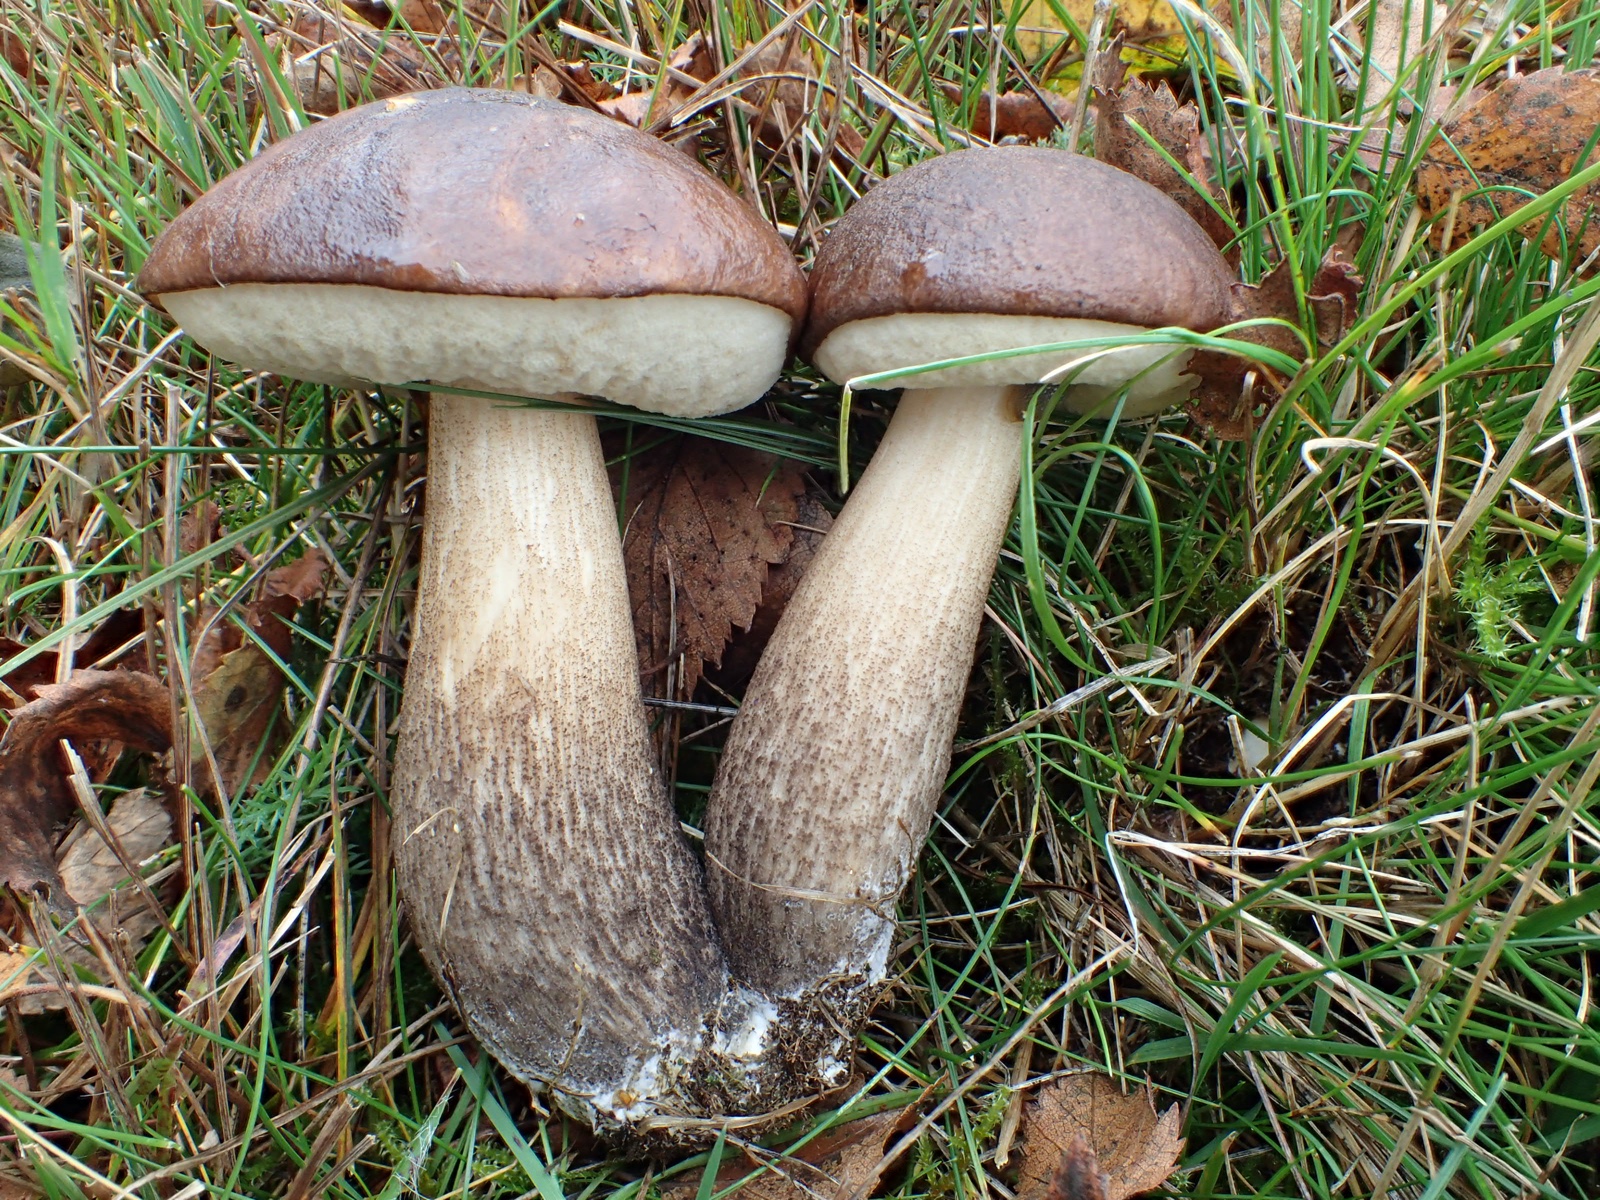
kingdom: Fungi
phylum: Basidiomycota
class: Agaricomycetes
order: Boletales
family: Boletaceae
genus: Leccinum
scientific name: Leccinum scabrum
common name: brun skælrørhat
